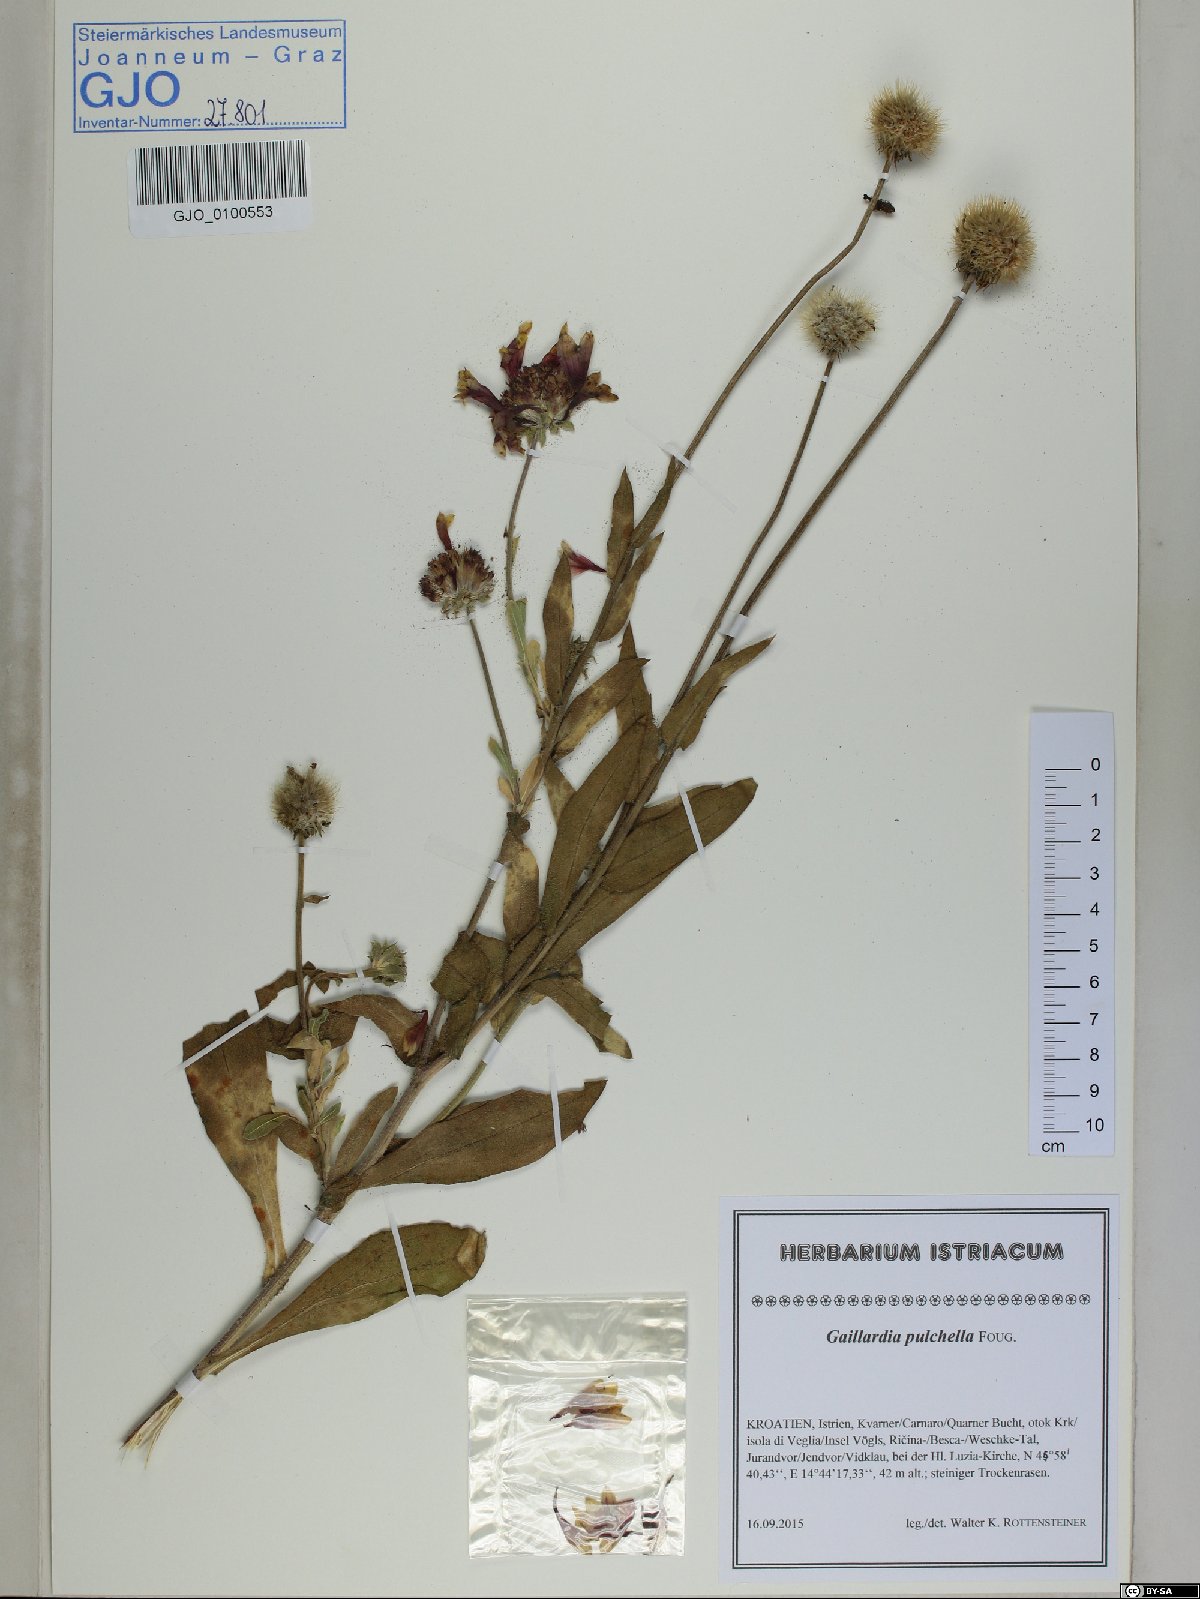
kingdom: Plantae
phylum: Tracheophyta
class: Magnoliopsida
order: Asterales
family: Asteraceae
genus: Gaillardia
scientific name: Gaillardia pulchella
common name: Firewheel
